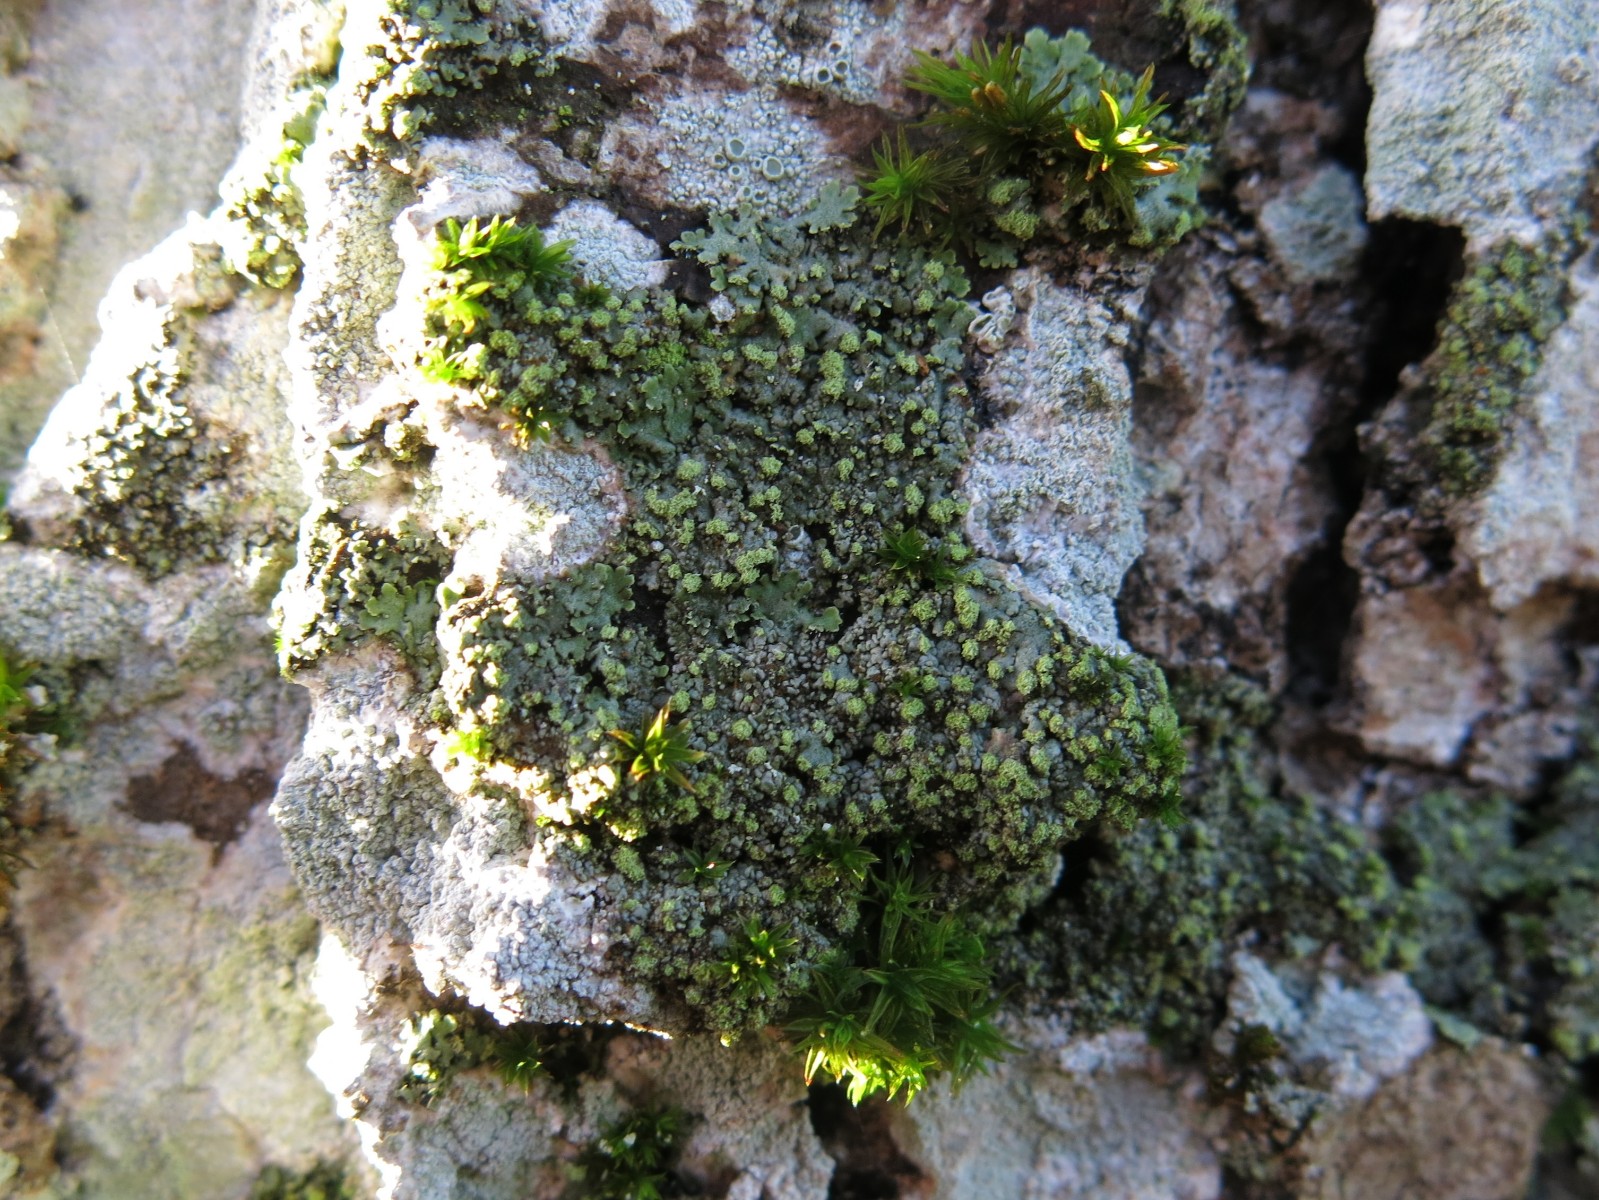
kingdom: Fungi
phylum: Ascomycota
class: Lecanoromycetes
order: Caliciales
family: Physciaceae
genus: Phaeophyscia
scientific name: Phaeophyscia orbicularis
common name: grågrøn rosetlav
